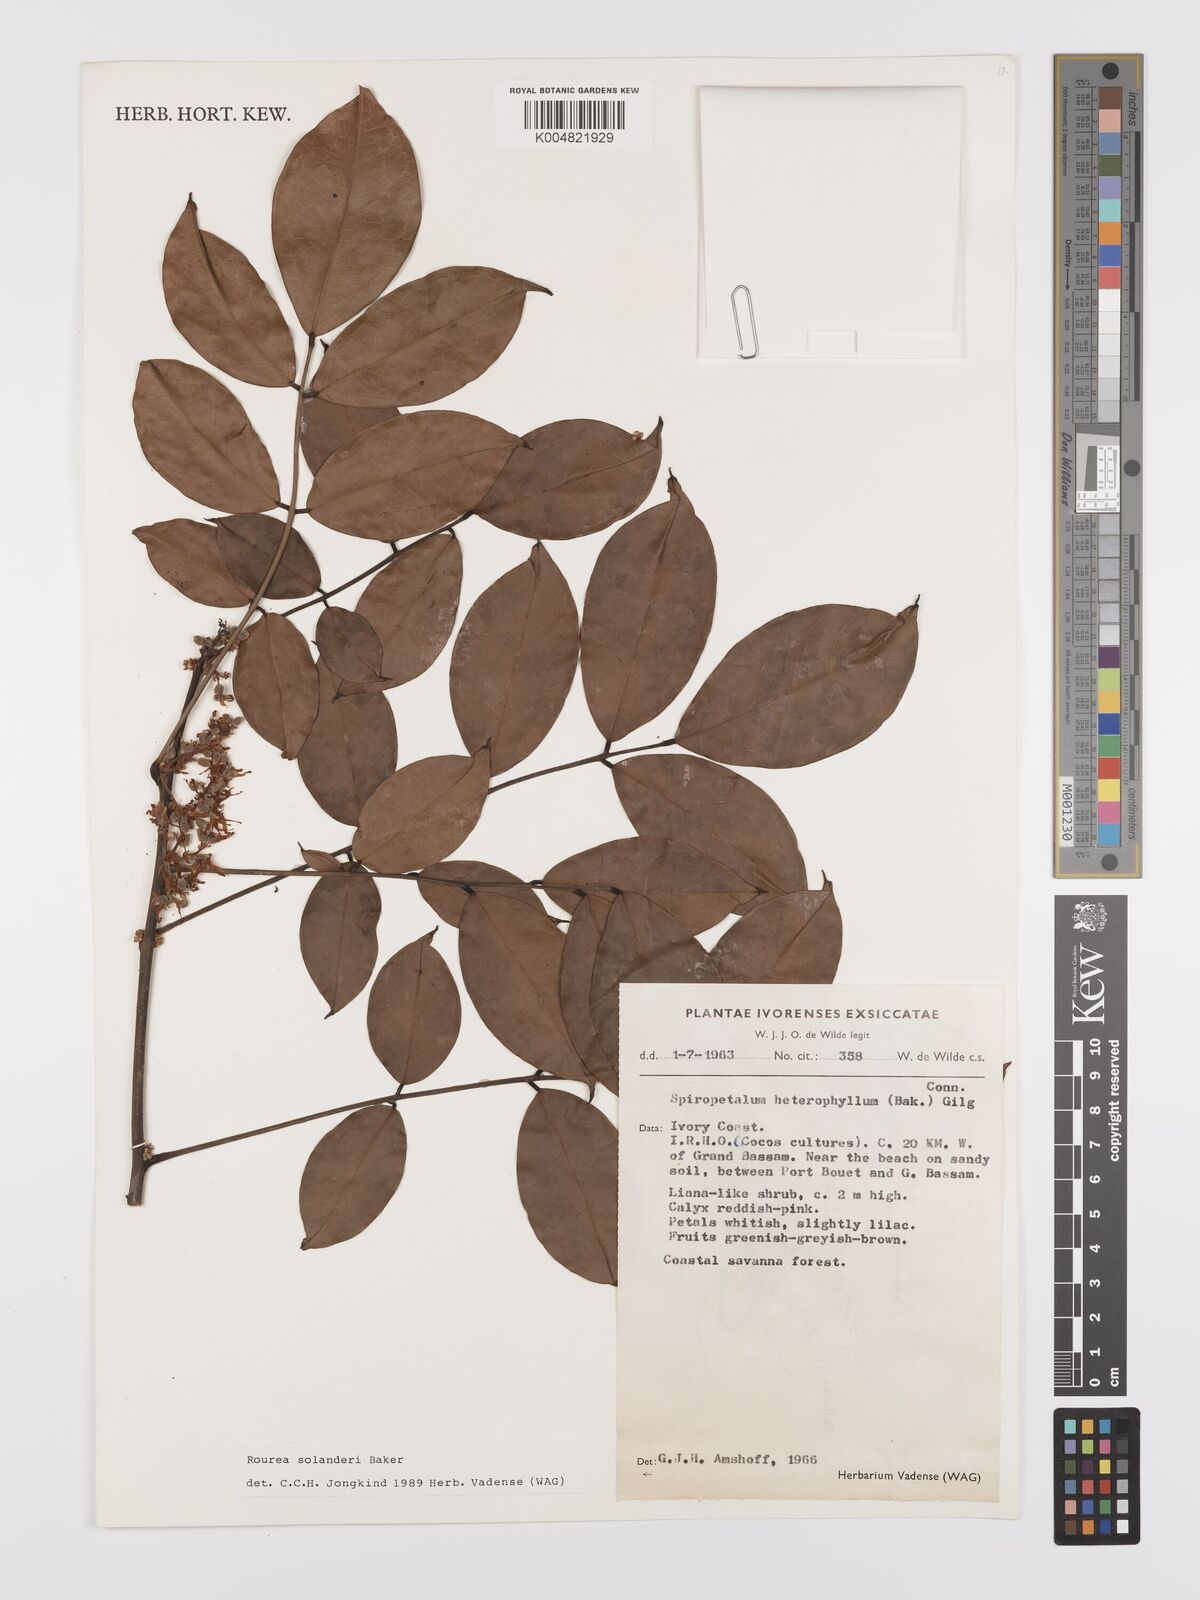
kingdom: Plantae
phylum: Tracheophyta
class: Magnoliopsida
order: Oxalidales
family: Connaraceae
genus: Rourea
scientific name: Rourea solanderi
